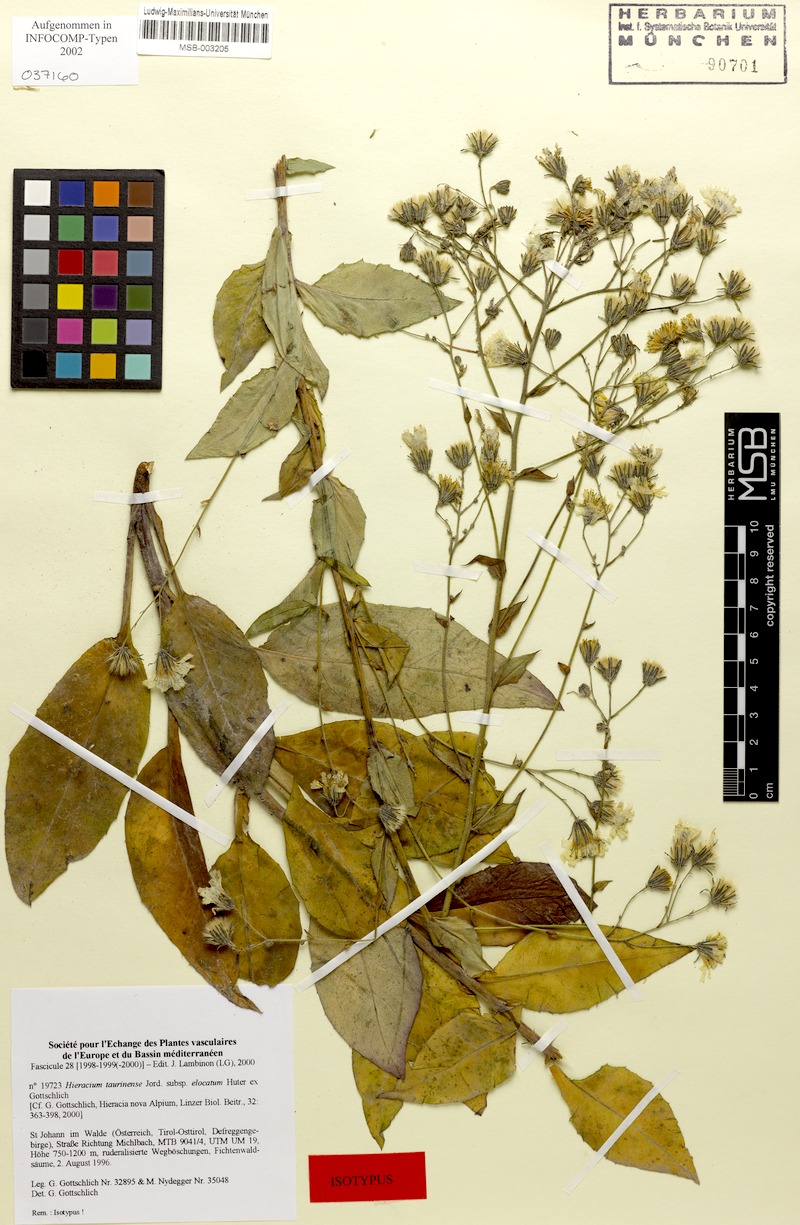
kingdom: Plantae
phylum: Tracheophyta
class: Magnoliopsida
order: Asterales
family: Asteraceae
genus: Hieracium
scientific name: Hieracium symphytaceum
